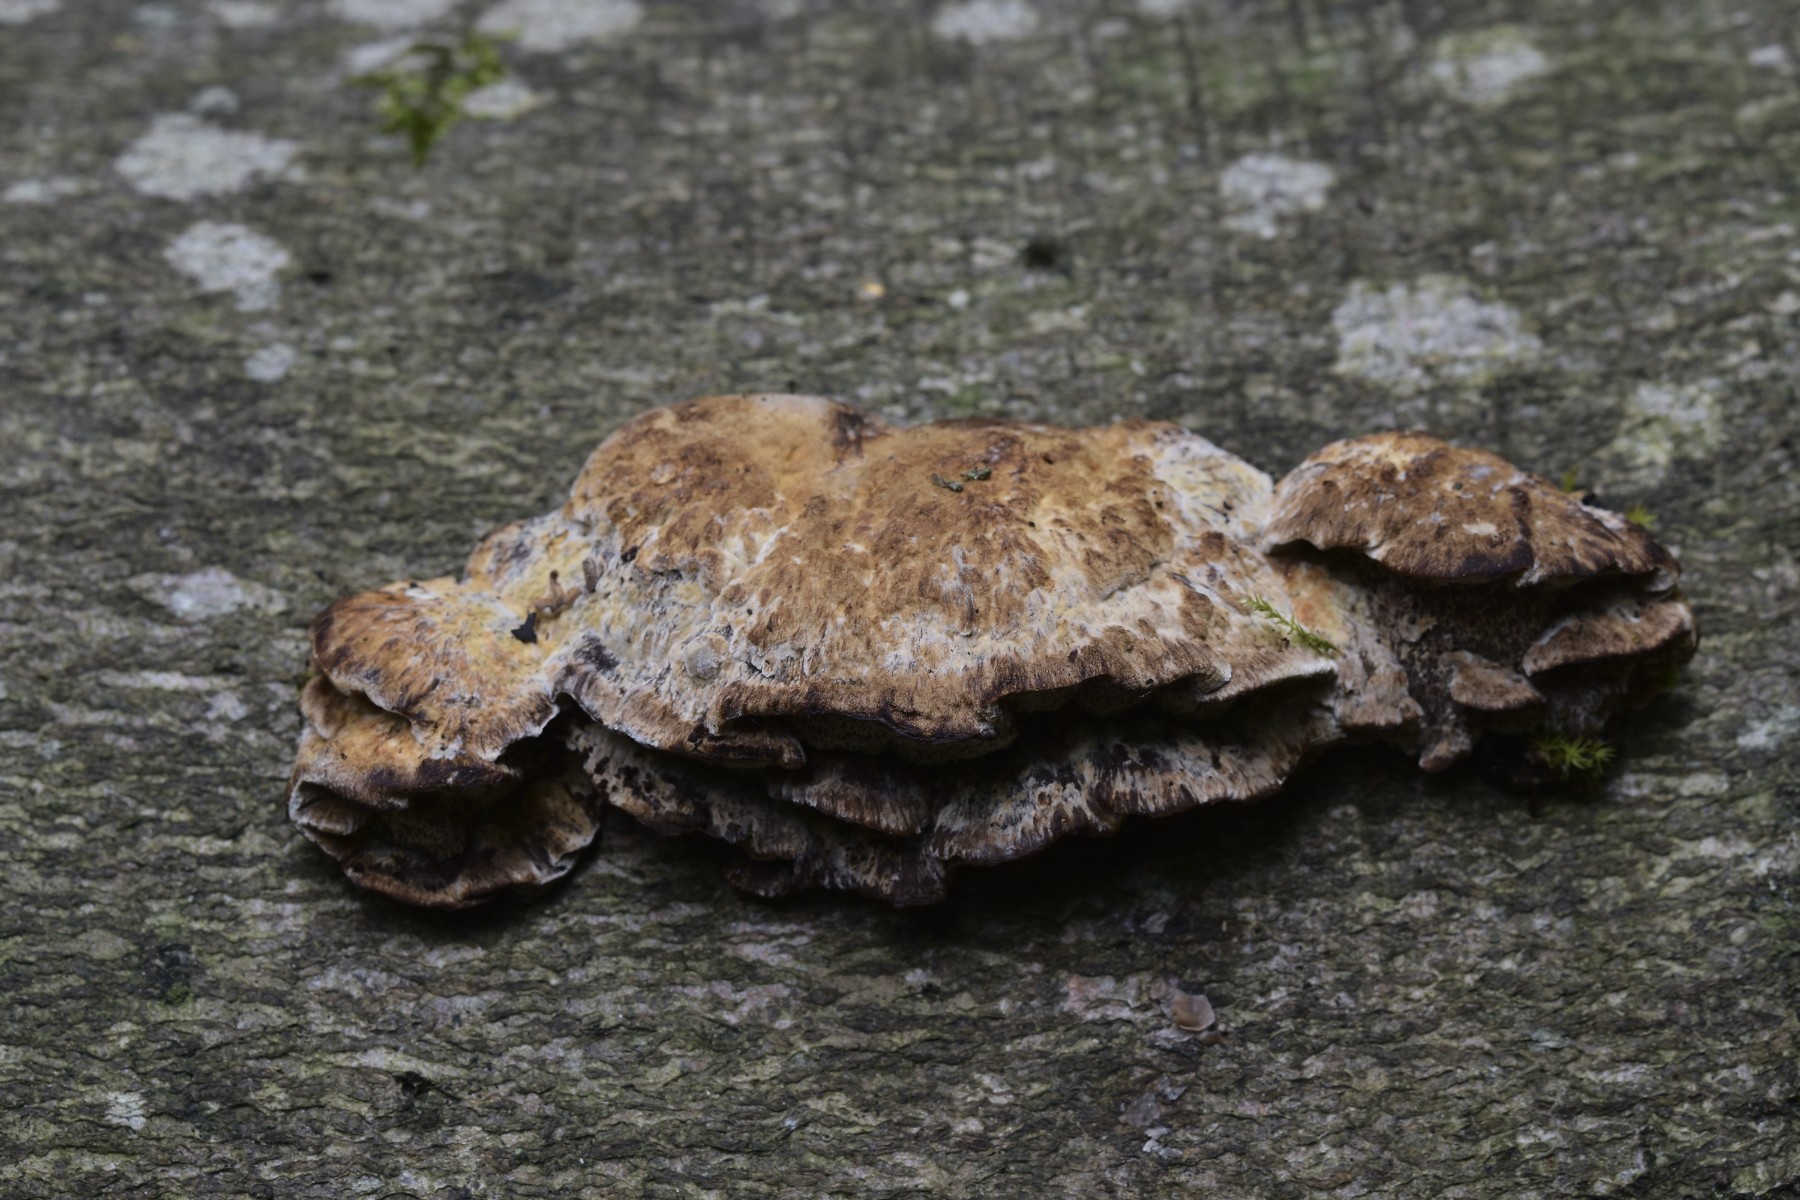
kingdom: Fungi
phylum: Basidiomycota
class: Agaricomycetes
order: Hymenochaetales
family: Hymenochaetaceae
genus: Mensularia
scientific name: Mensularia nodulosa
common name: bøge-spejlporesvamp
